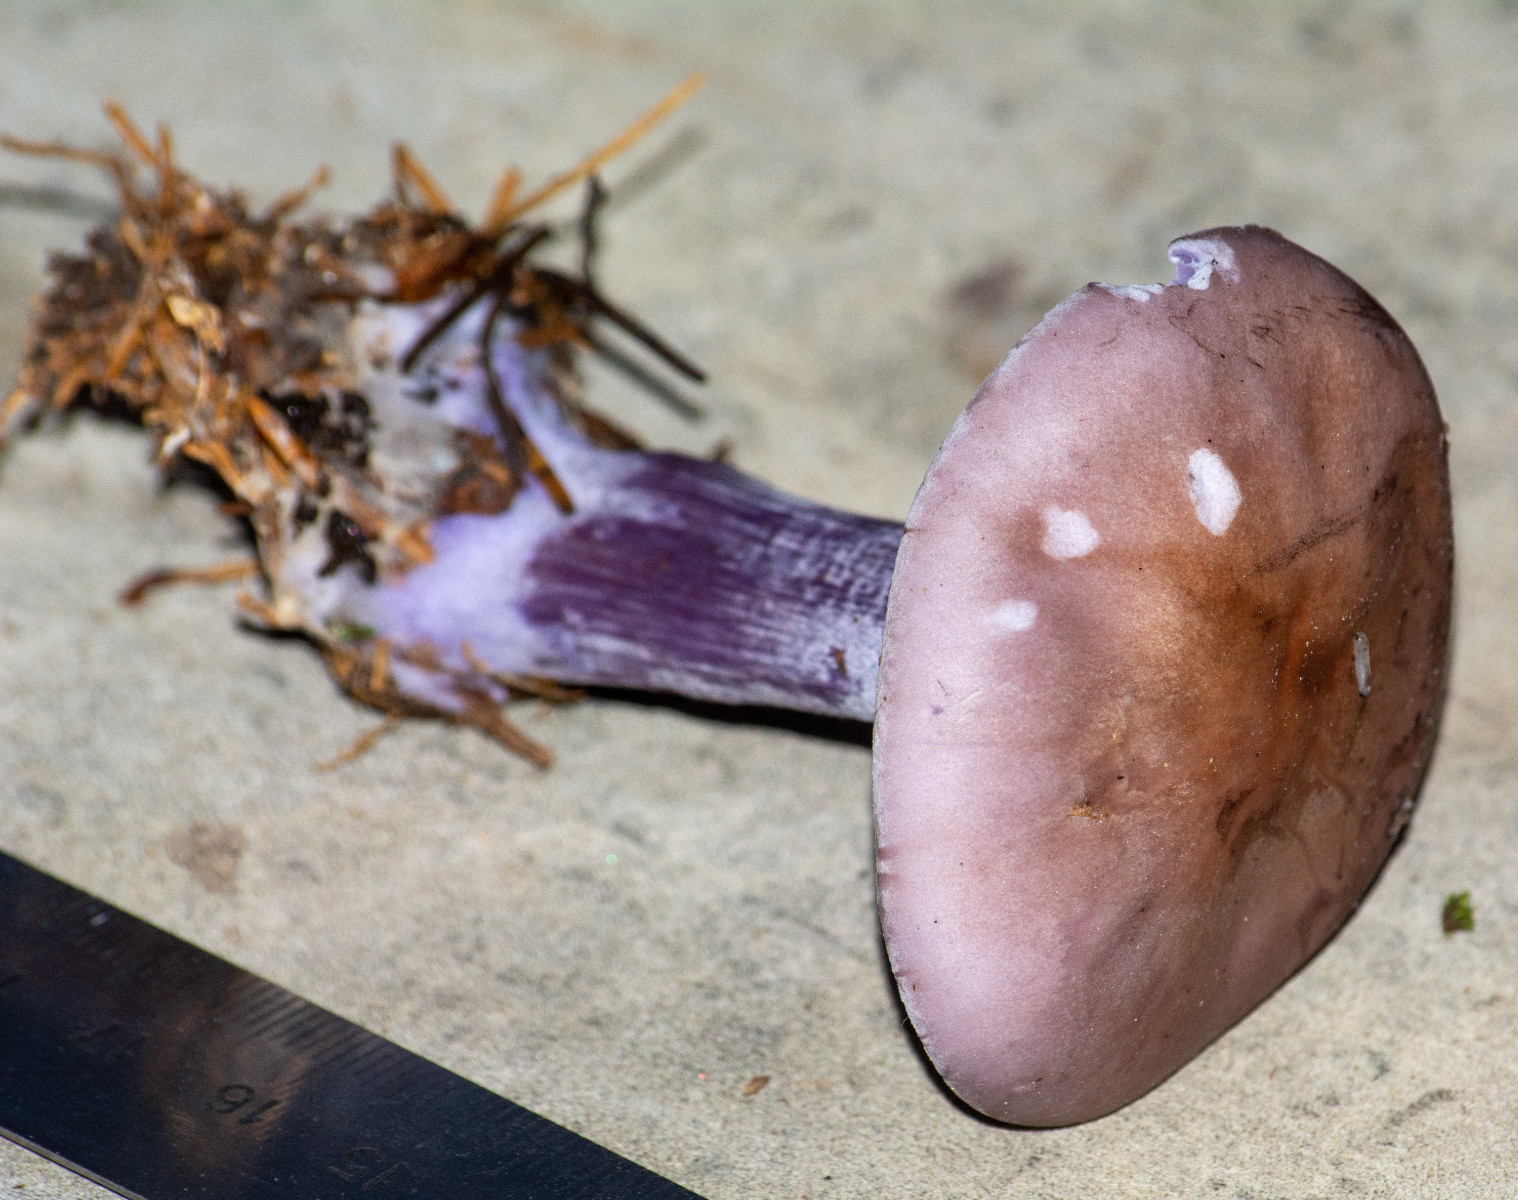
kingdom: Fungi
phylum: Basidiomycota
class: Agaricomycetes
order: Agaricales
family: Tricholomataceae
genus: Lepista
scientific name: Lepista nuda
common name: violet hekseringshat
